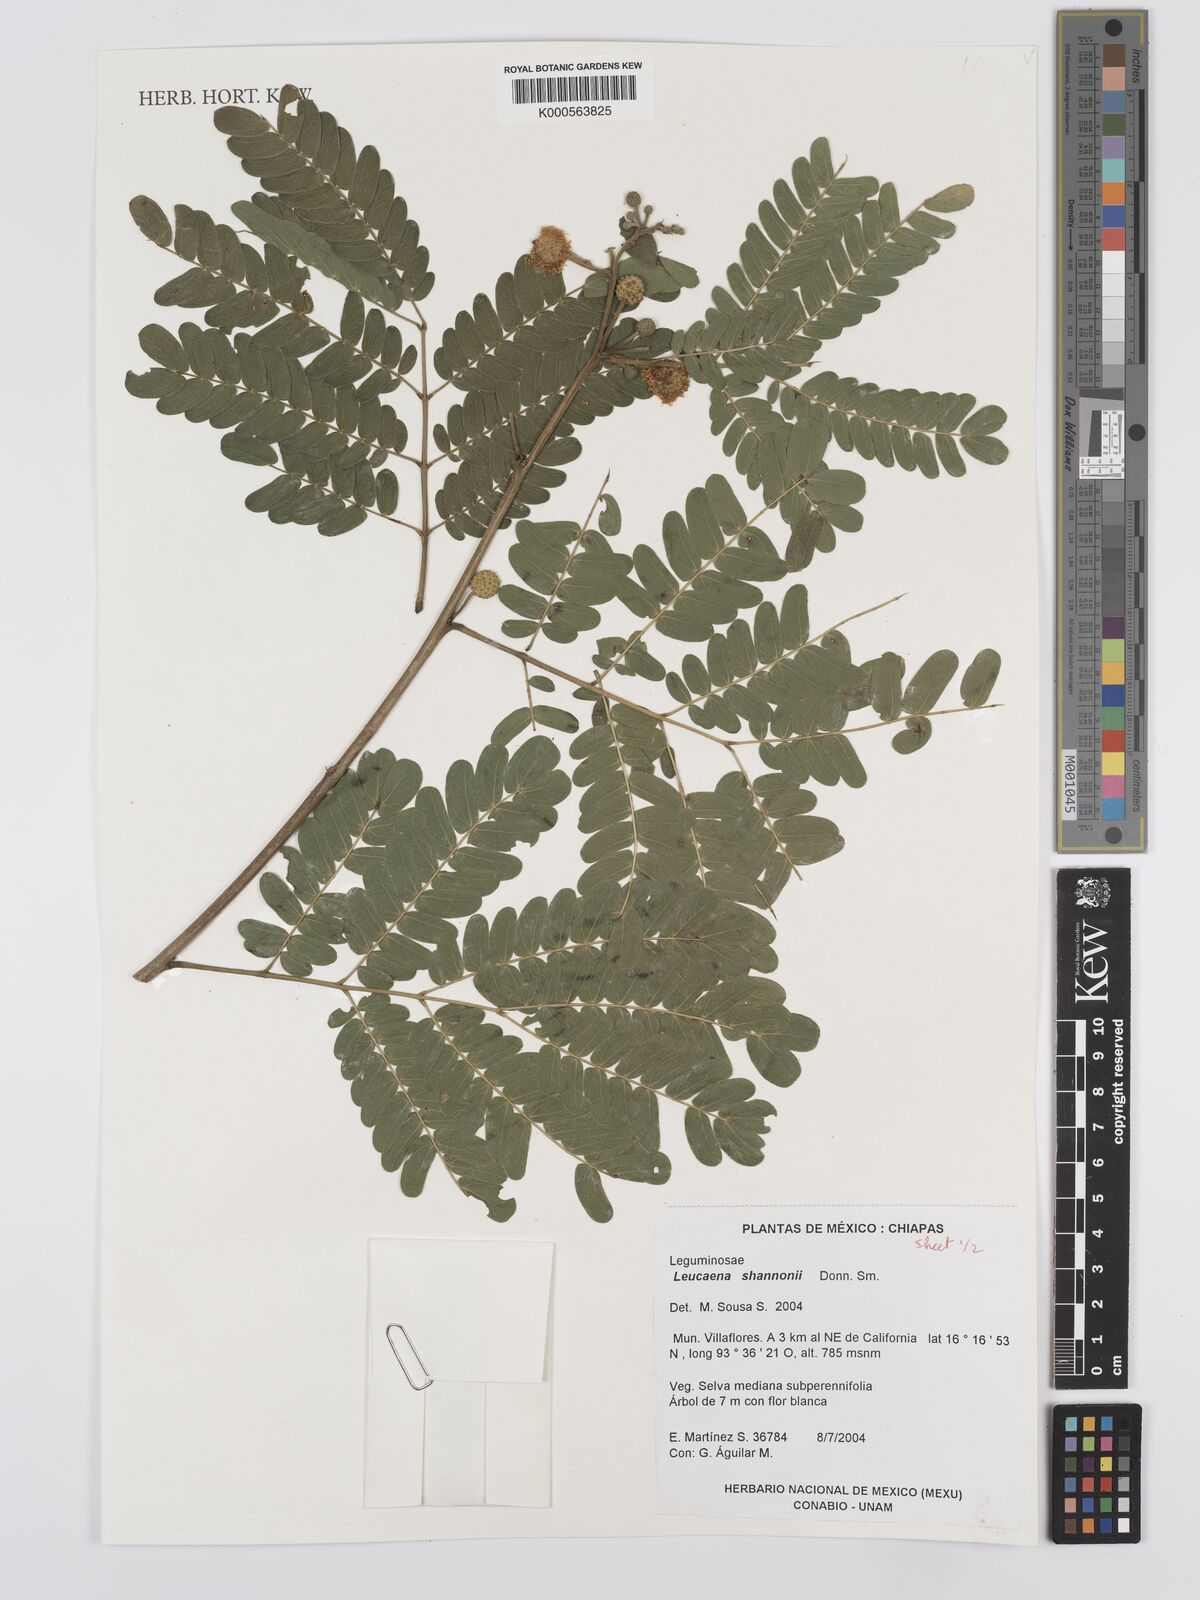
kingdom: Plantae
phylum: Tracheophyta
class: Magnoliopsida
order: Fabales
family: Fabaceae
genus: Leucaena
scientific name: Leucaena shannonii
